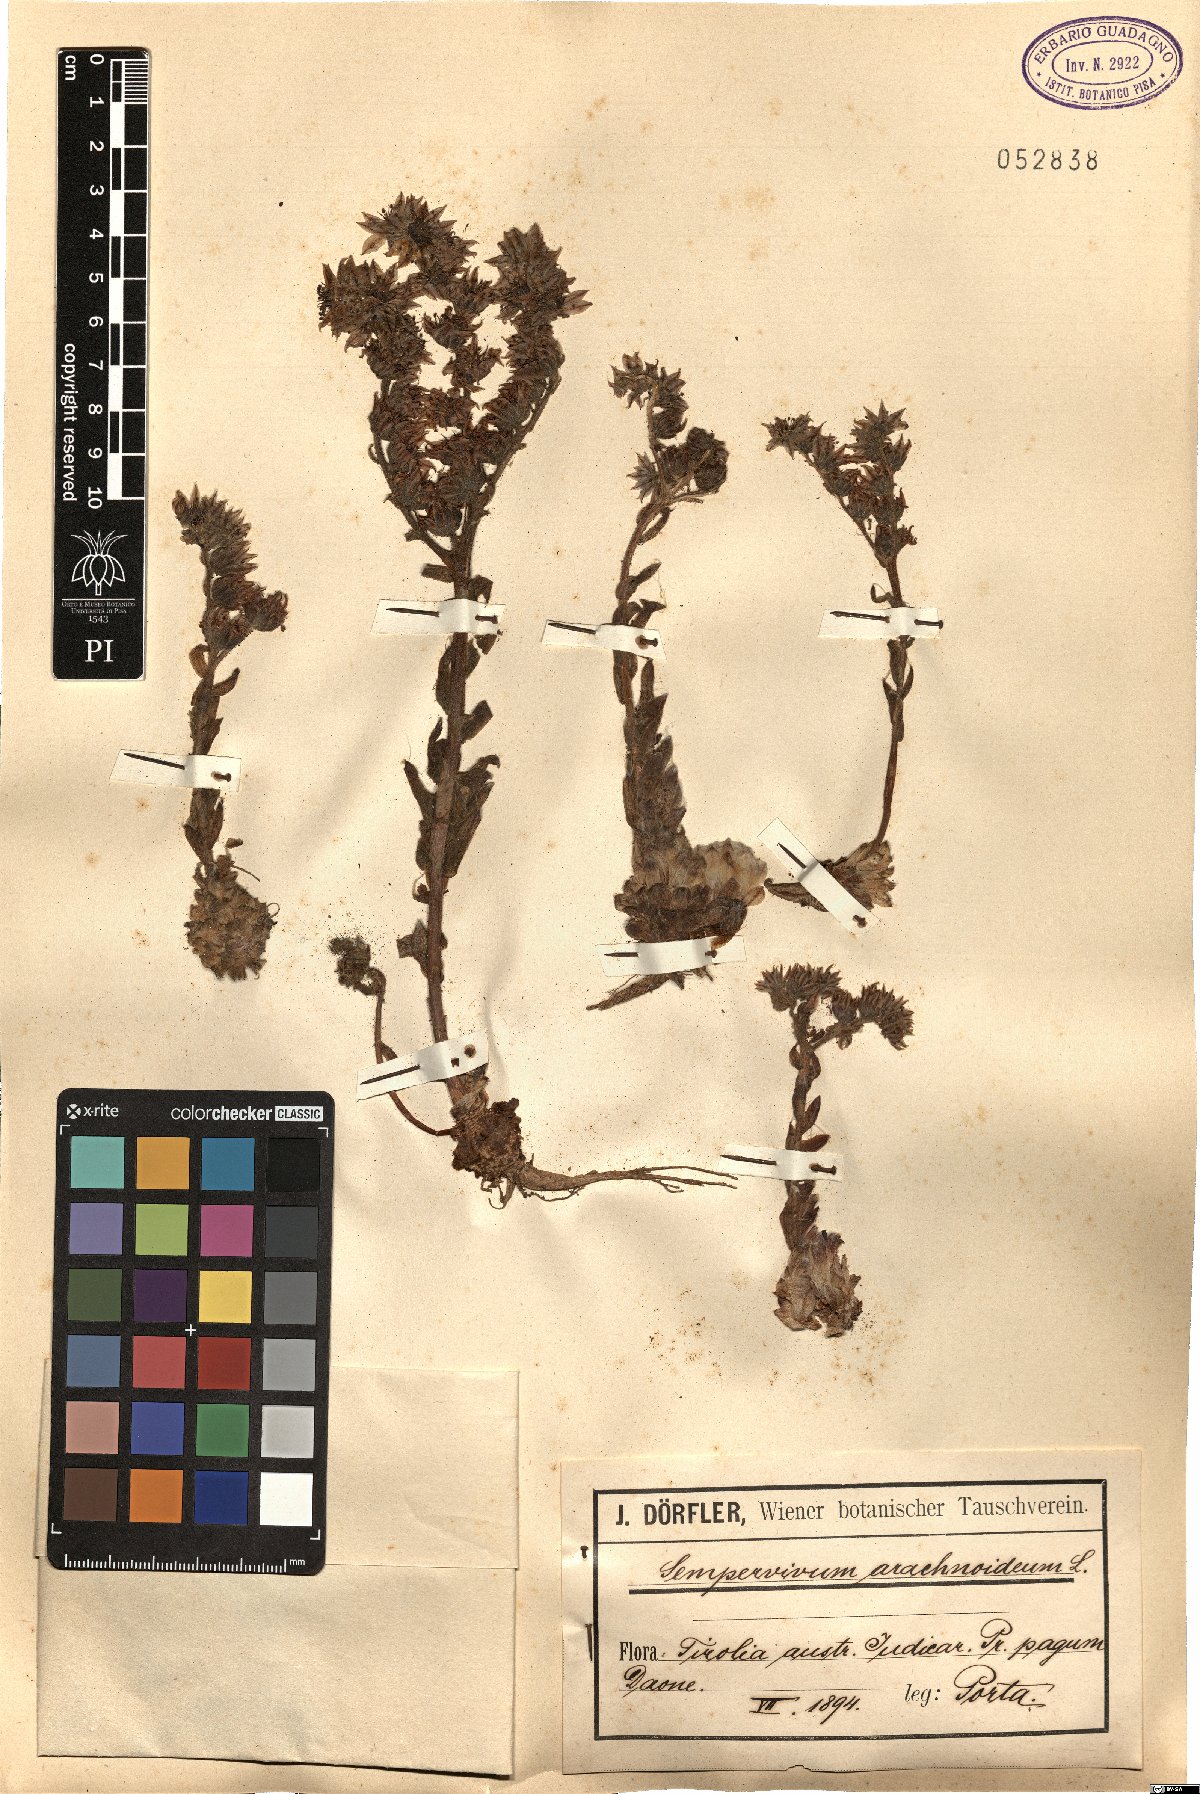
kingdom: Plantae
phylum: Tracheophyta
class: Magnoliopsida
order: Saxifragales
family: Crassulaceae
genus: Sempervivum
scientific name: Sempervivum arachnoideum
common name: Cobweb house-leek
